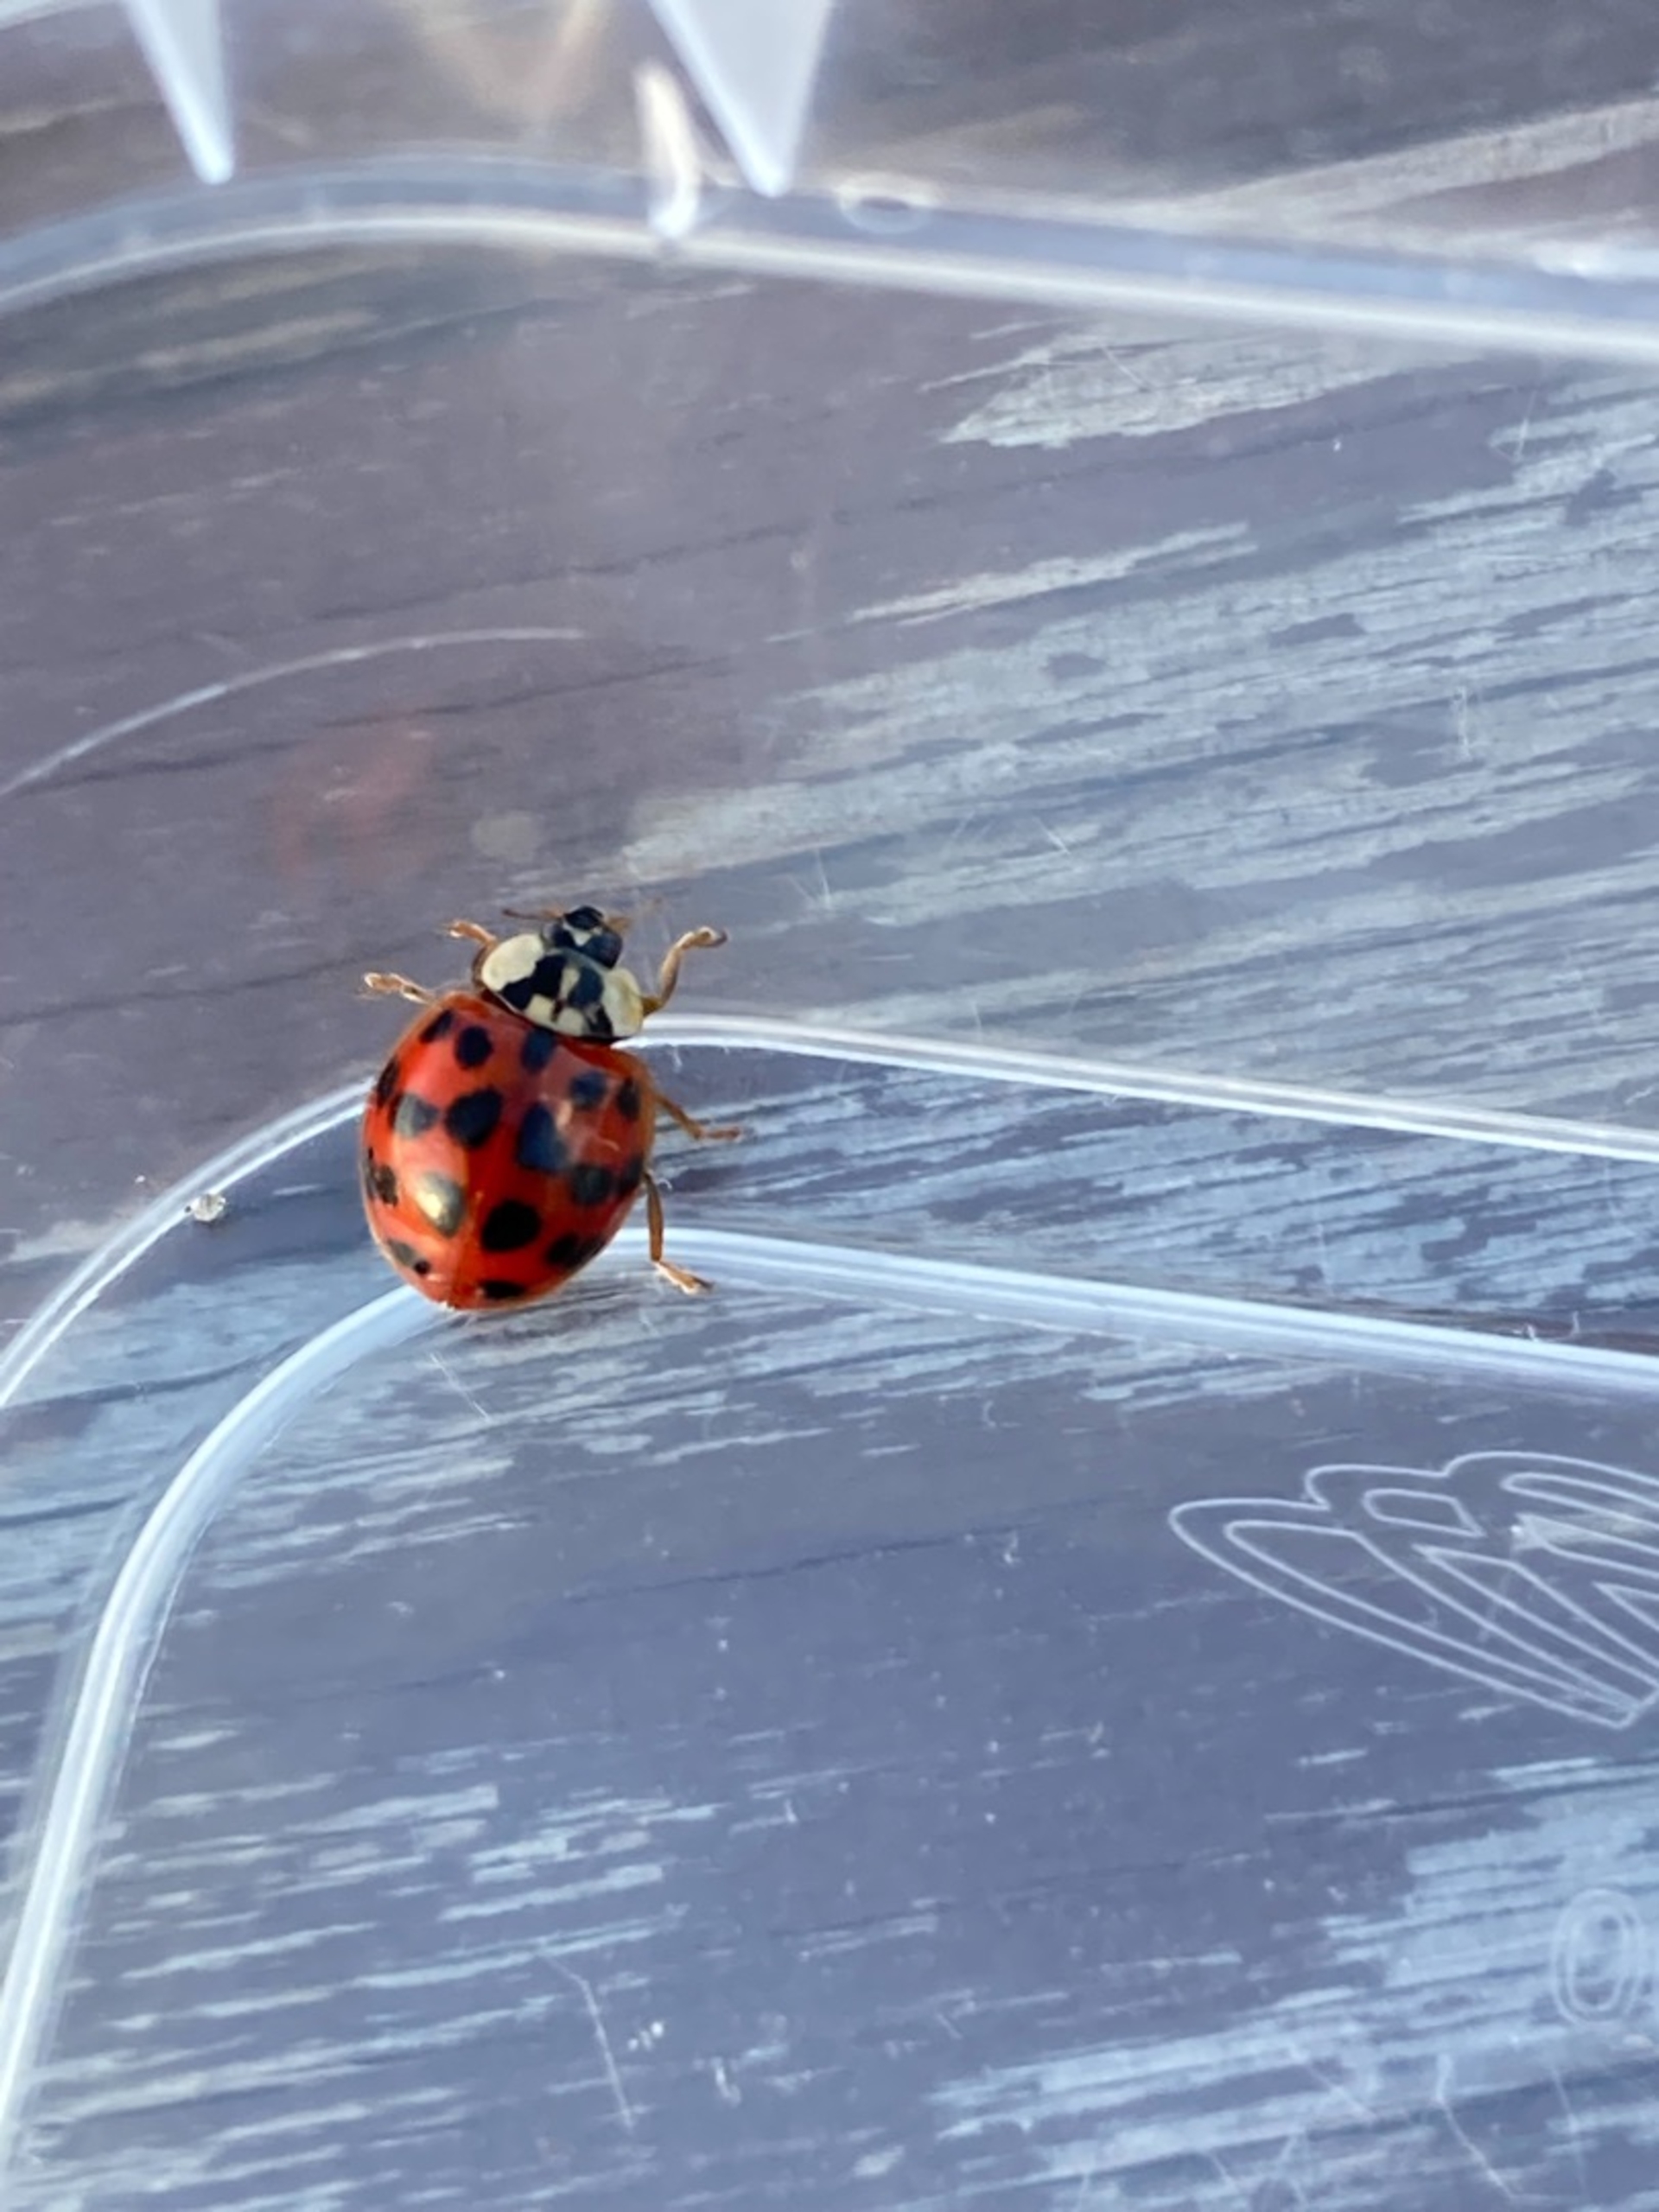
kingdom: Animalia
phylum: Arthropoda
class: Insecta
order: Coleoptera
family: Coccinellidae
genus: Harmonia
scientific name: Harmonia axyridis
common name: Harlekinmariehøne
